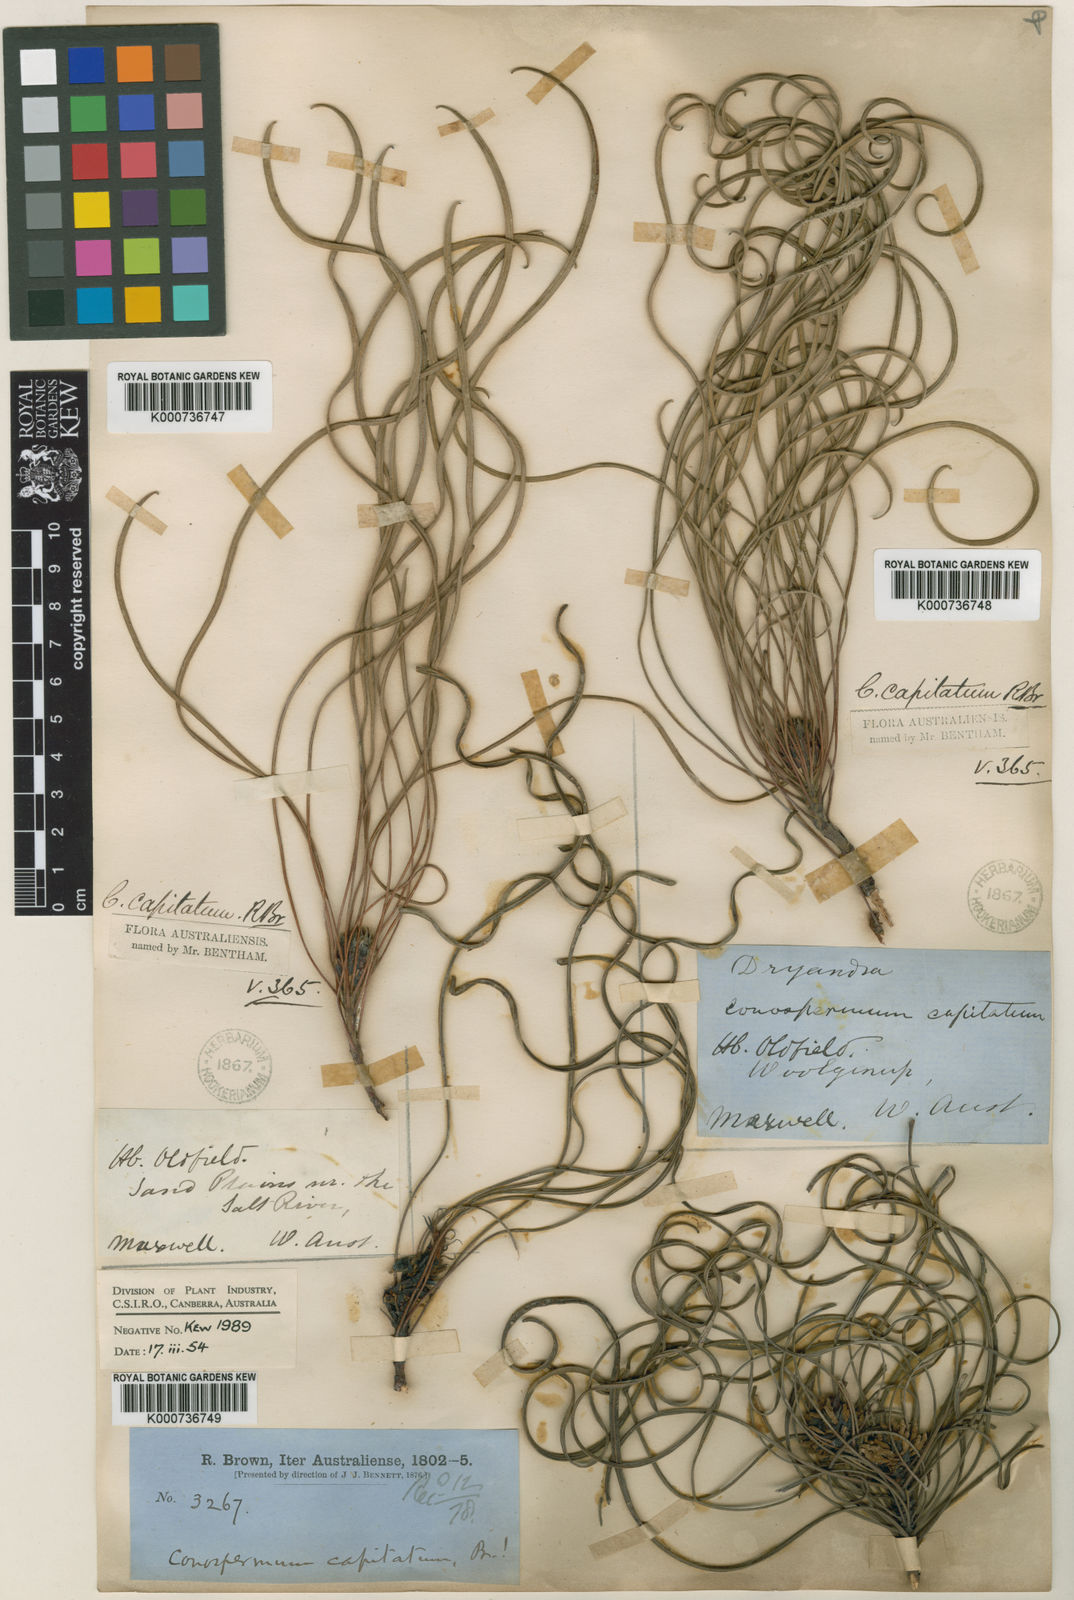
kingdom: Plantae
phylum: Tracheophyta
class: Magnoliopsida
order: Proteales
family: Proteaceae
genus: Conospermum
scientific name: Conospermum capitatum
